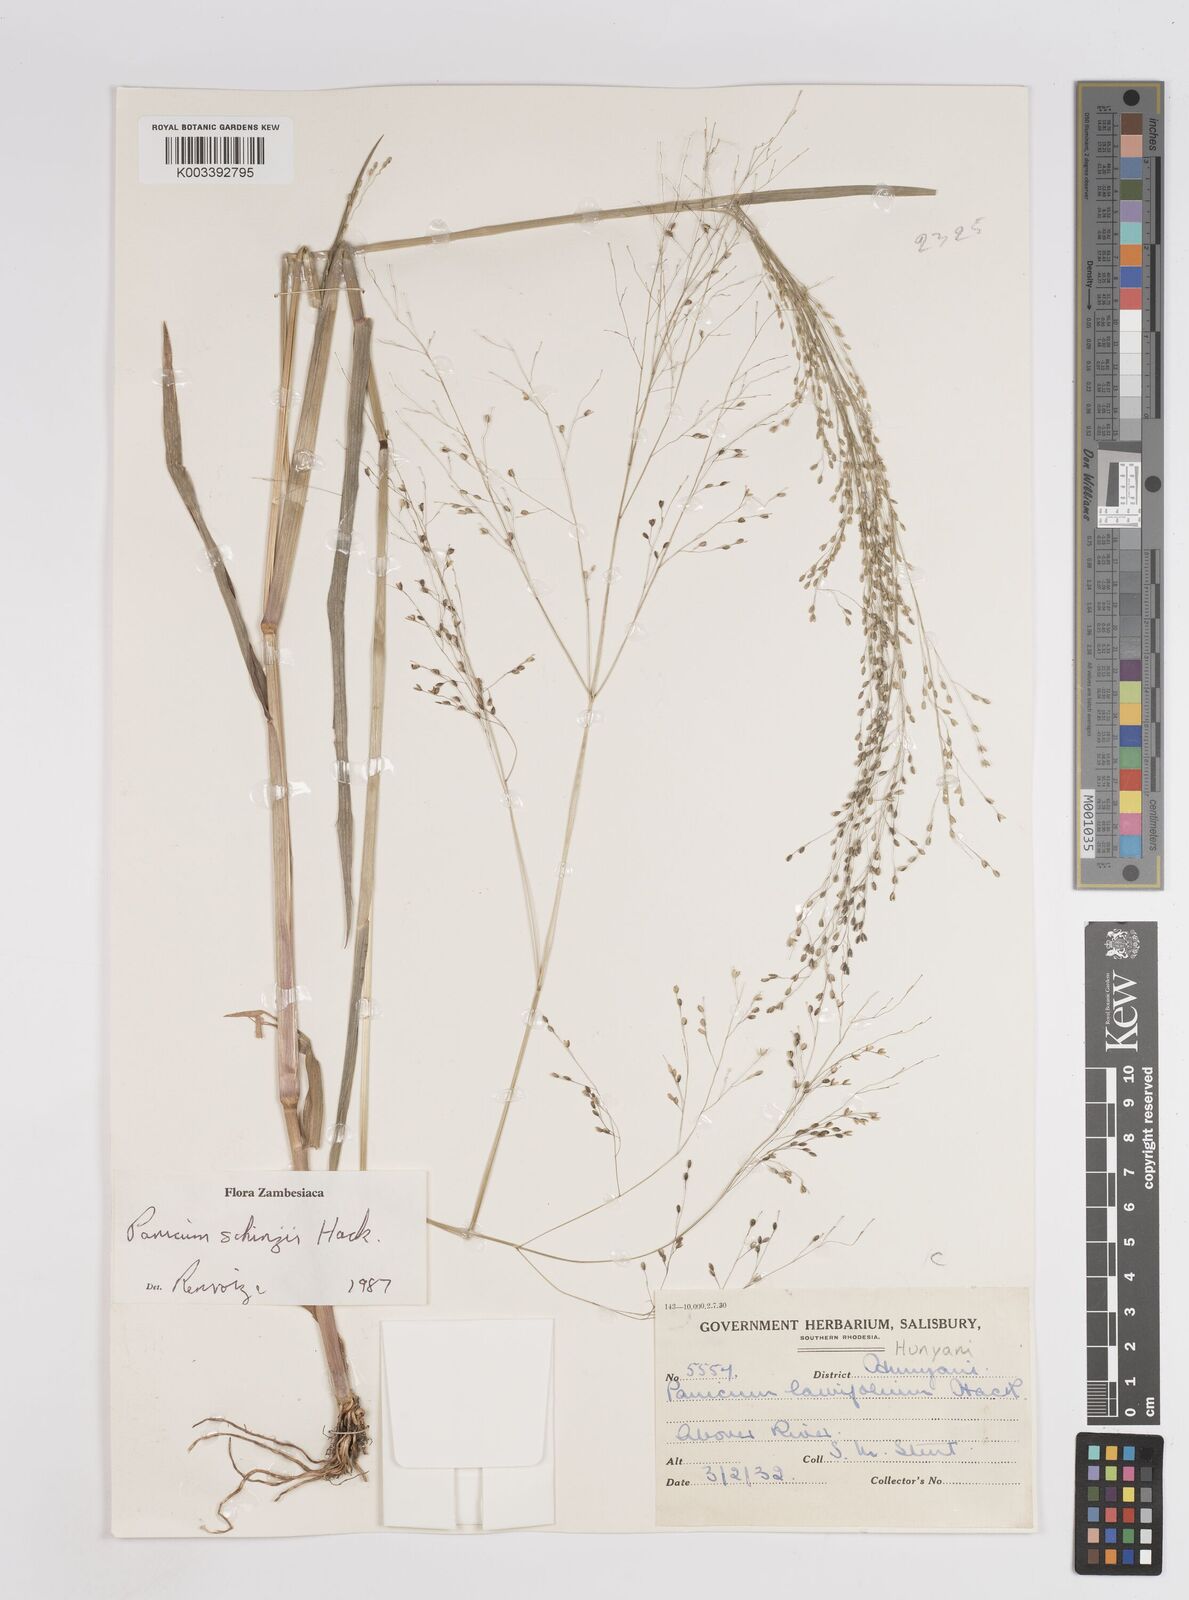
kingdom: Plantae
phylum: Tracheophyta
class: Liliopsida
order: Poales
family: Poaceae
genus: Panicum
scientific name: Panicum schinzii
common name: Sweet grass
